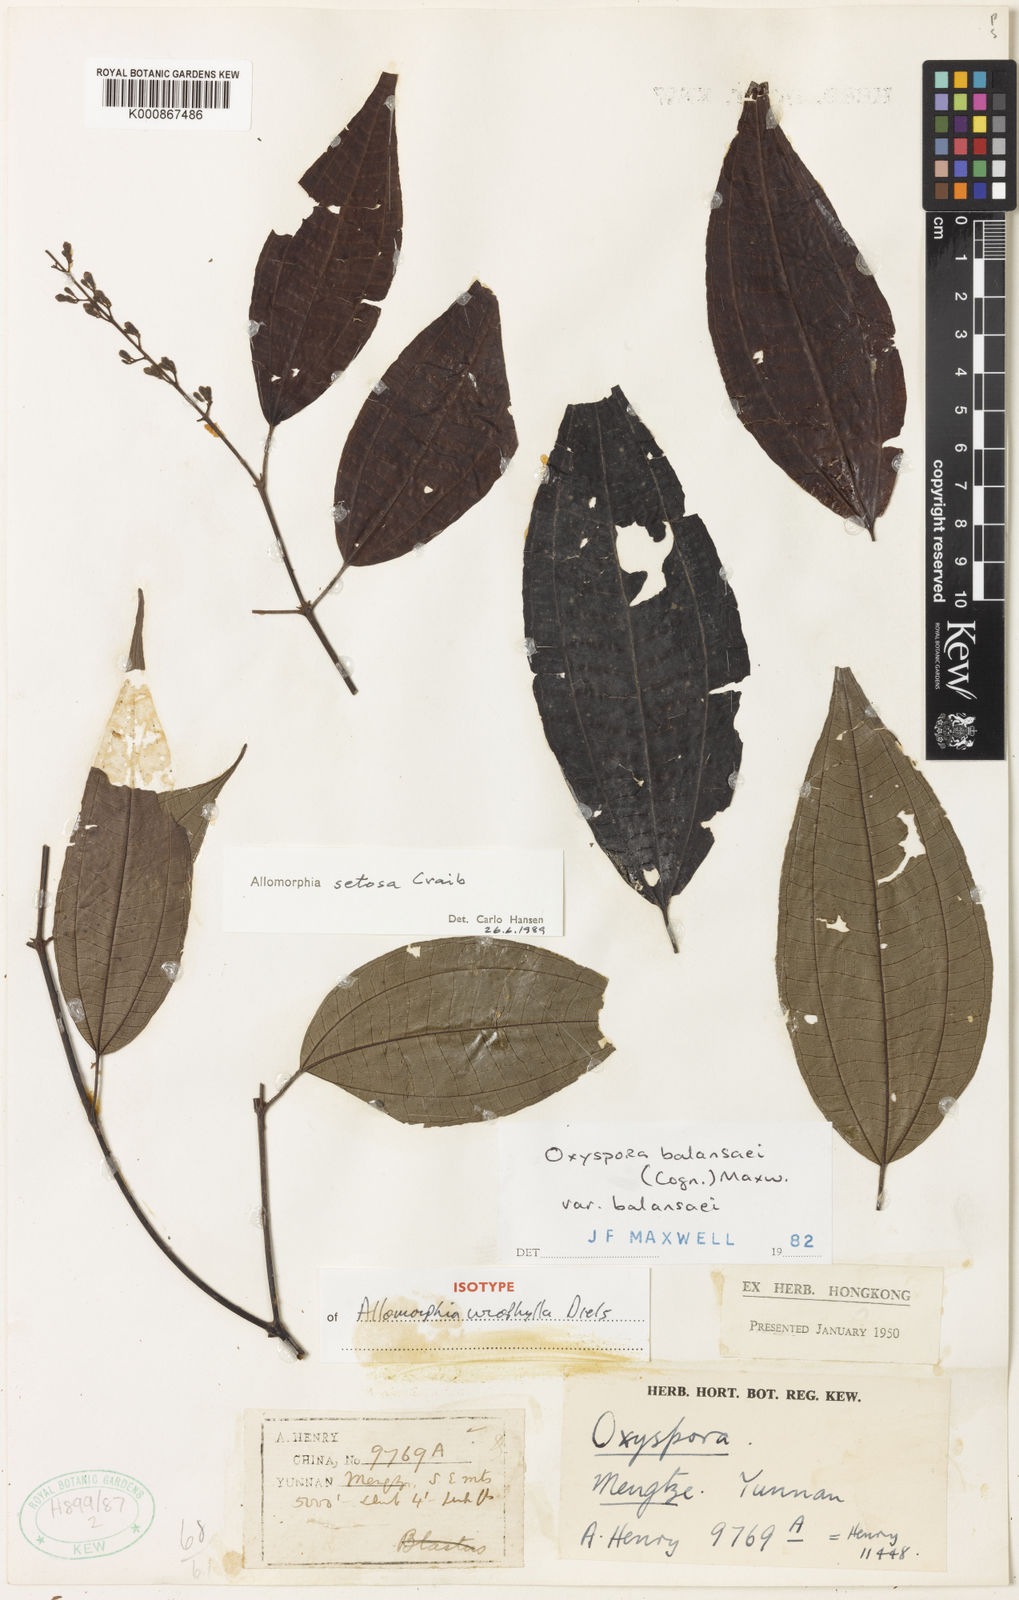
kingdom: Plantae
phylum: Tracheophyta
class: Magnoliopsida
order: Myrtales
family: Melastomataceae
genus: Allomorphia
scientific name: Allomorphia howellii
